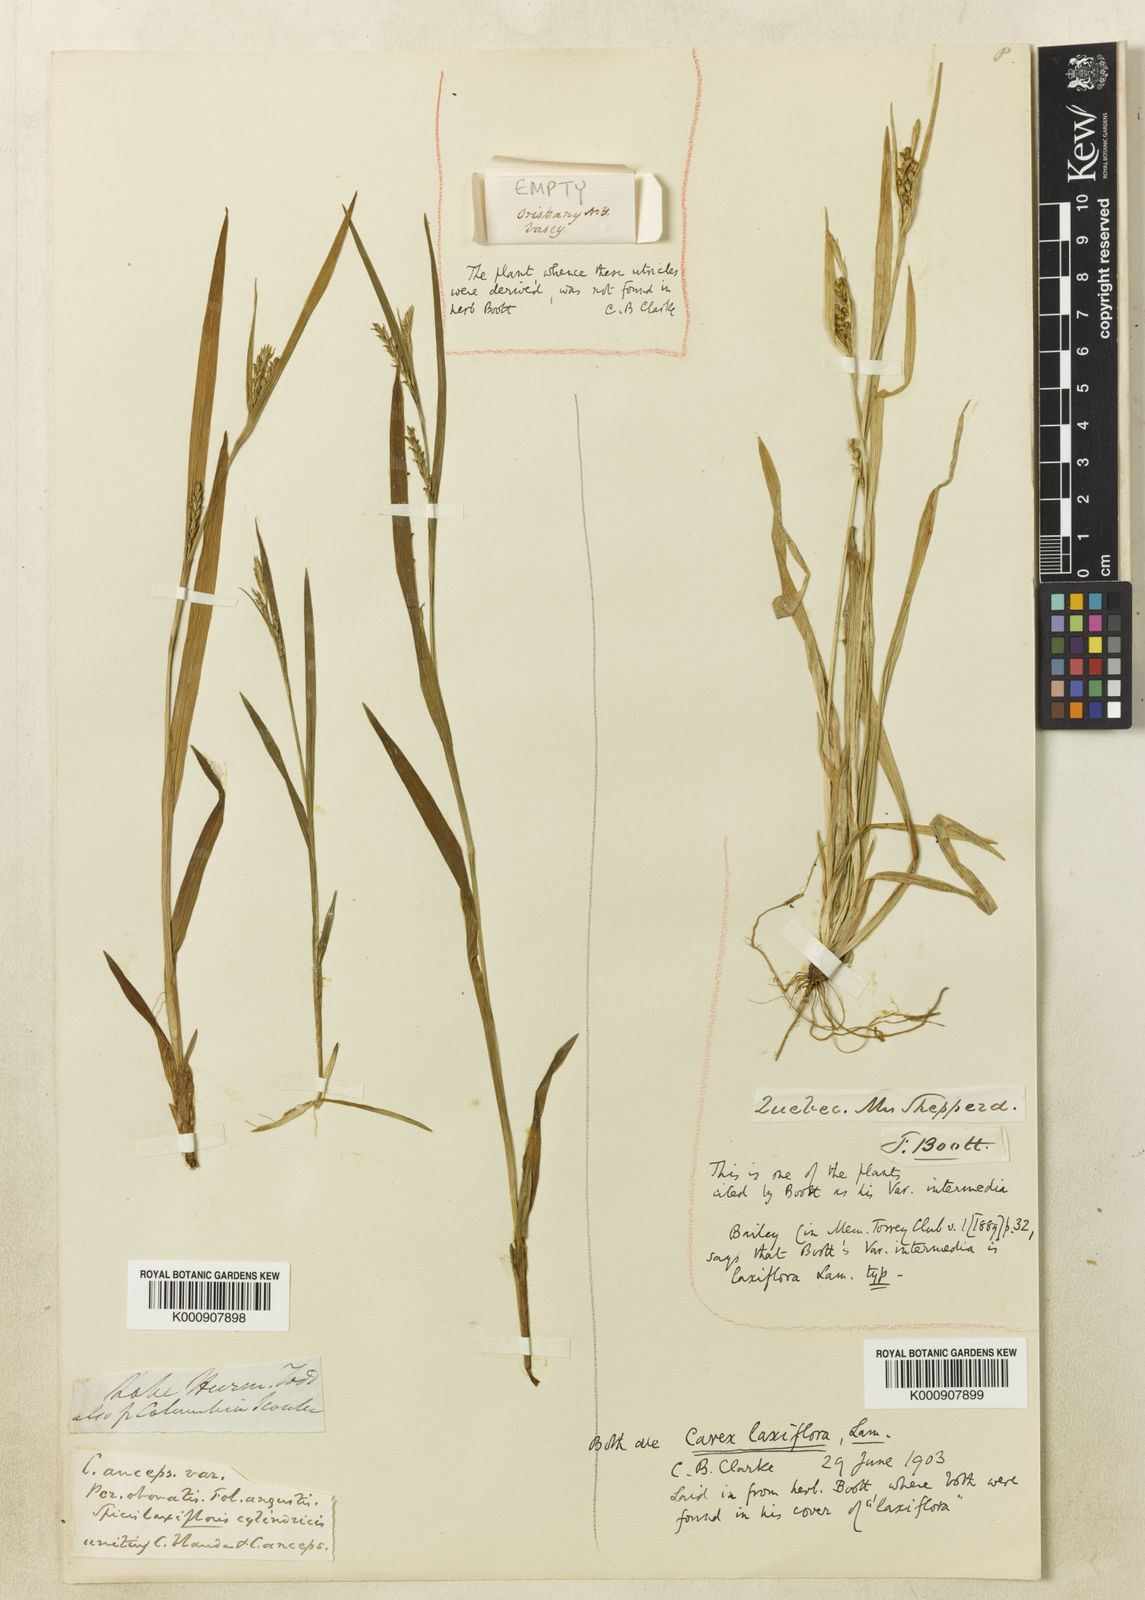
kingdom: Plantae
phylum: Tracheophyta
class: Liliopsida
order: Poales
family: Cyperaceae
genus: Carex
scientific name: Carex laxiflora
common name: Beech wood sedge
